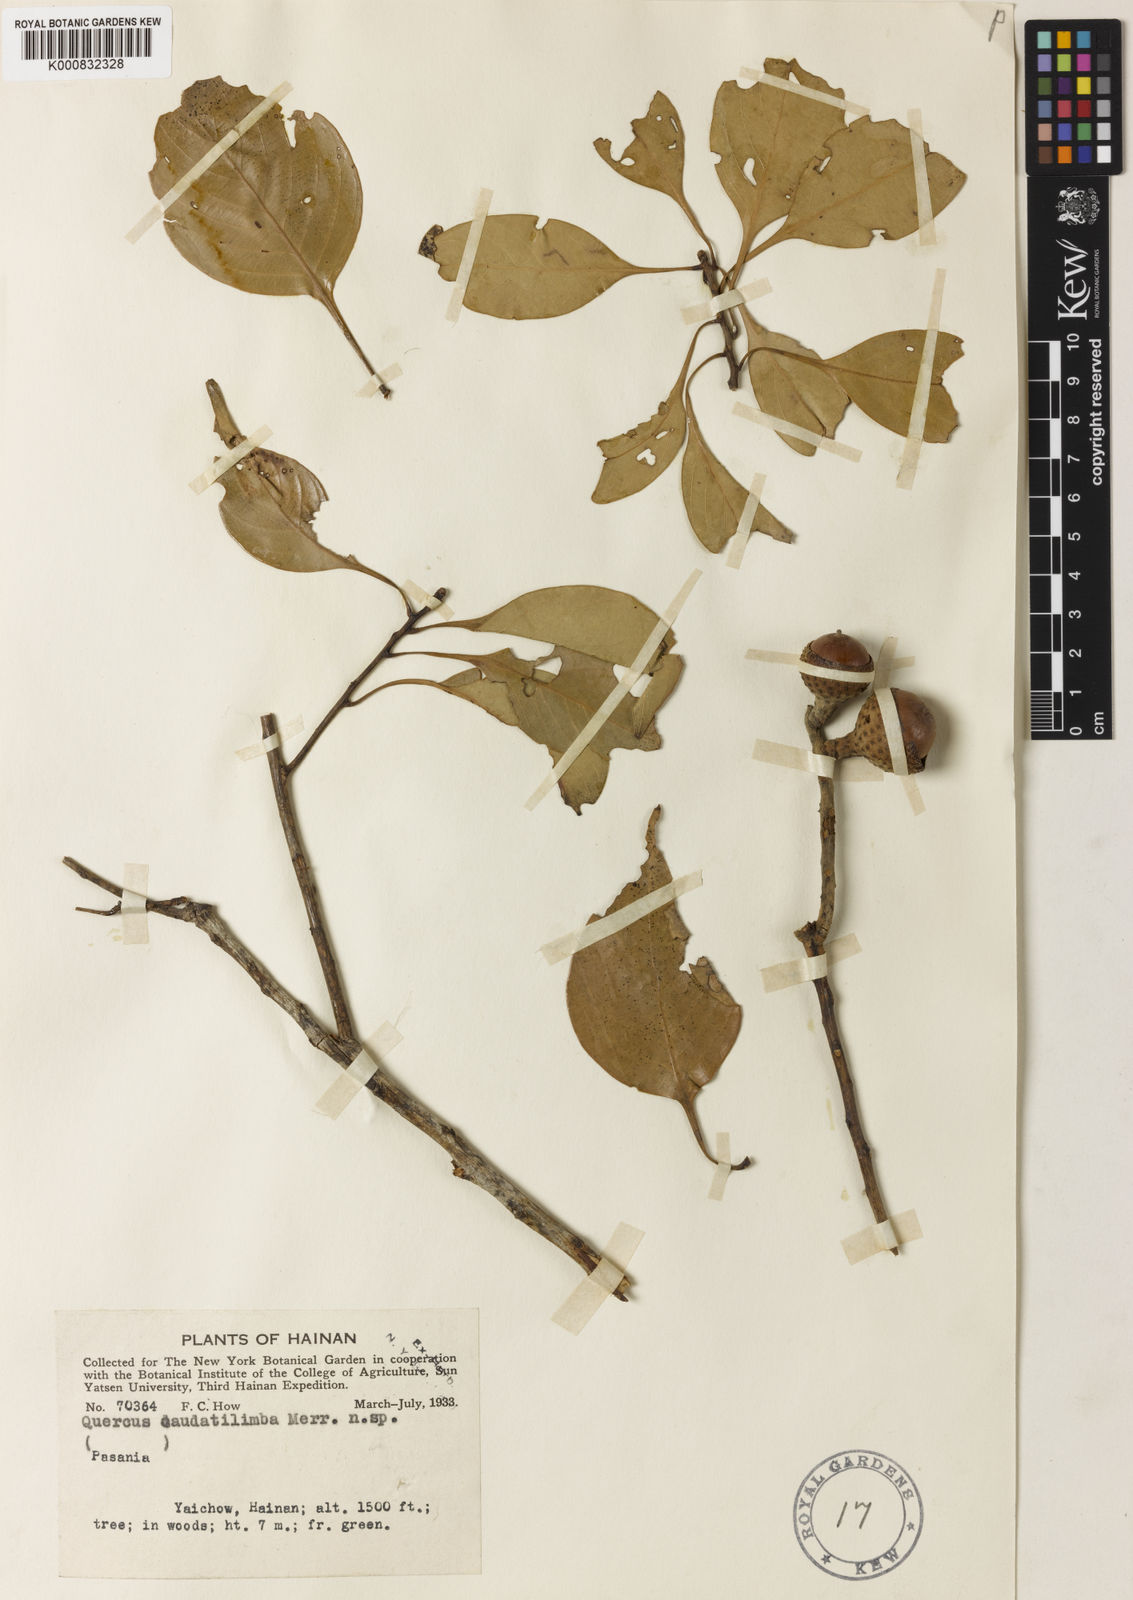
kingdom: Plantae
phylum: Tracheophyta
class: Magnoliopsida
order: Fagales
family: Fagaceae
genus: Lithocarpus
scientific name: Lithocarpus caudatilimbus
